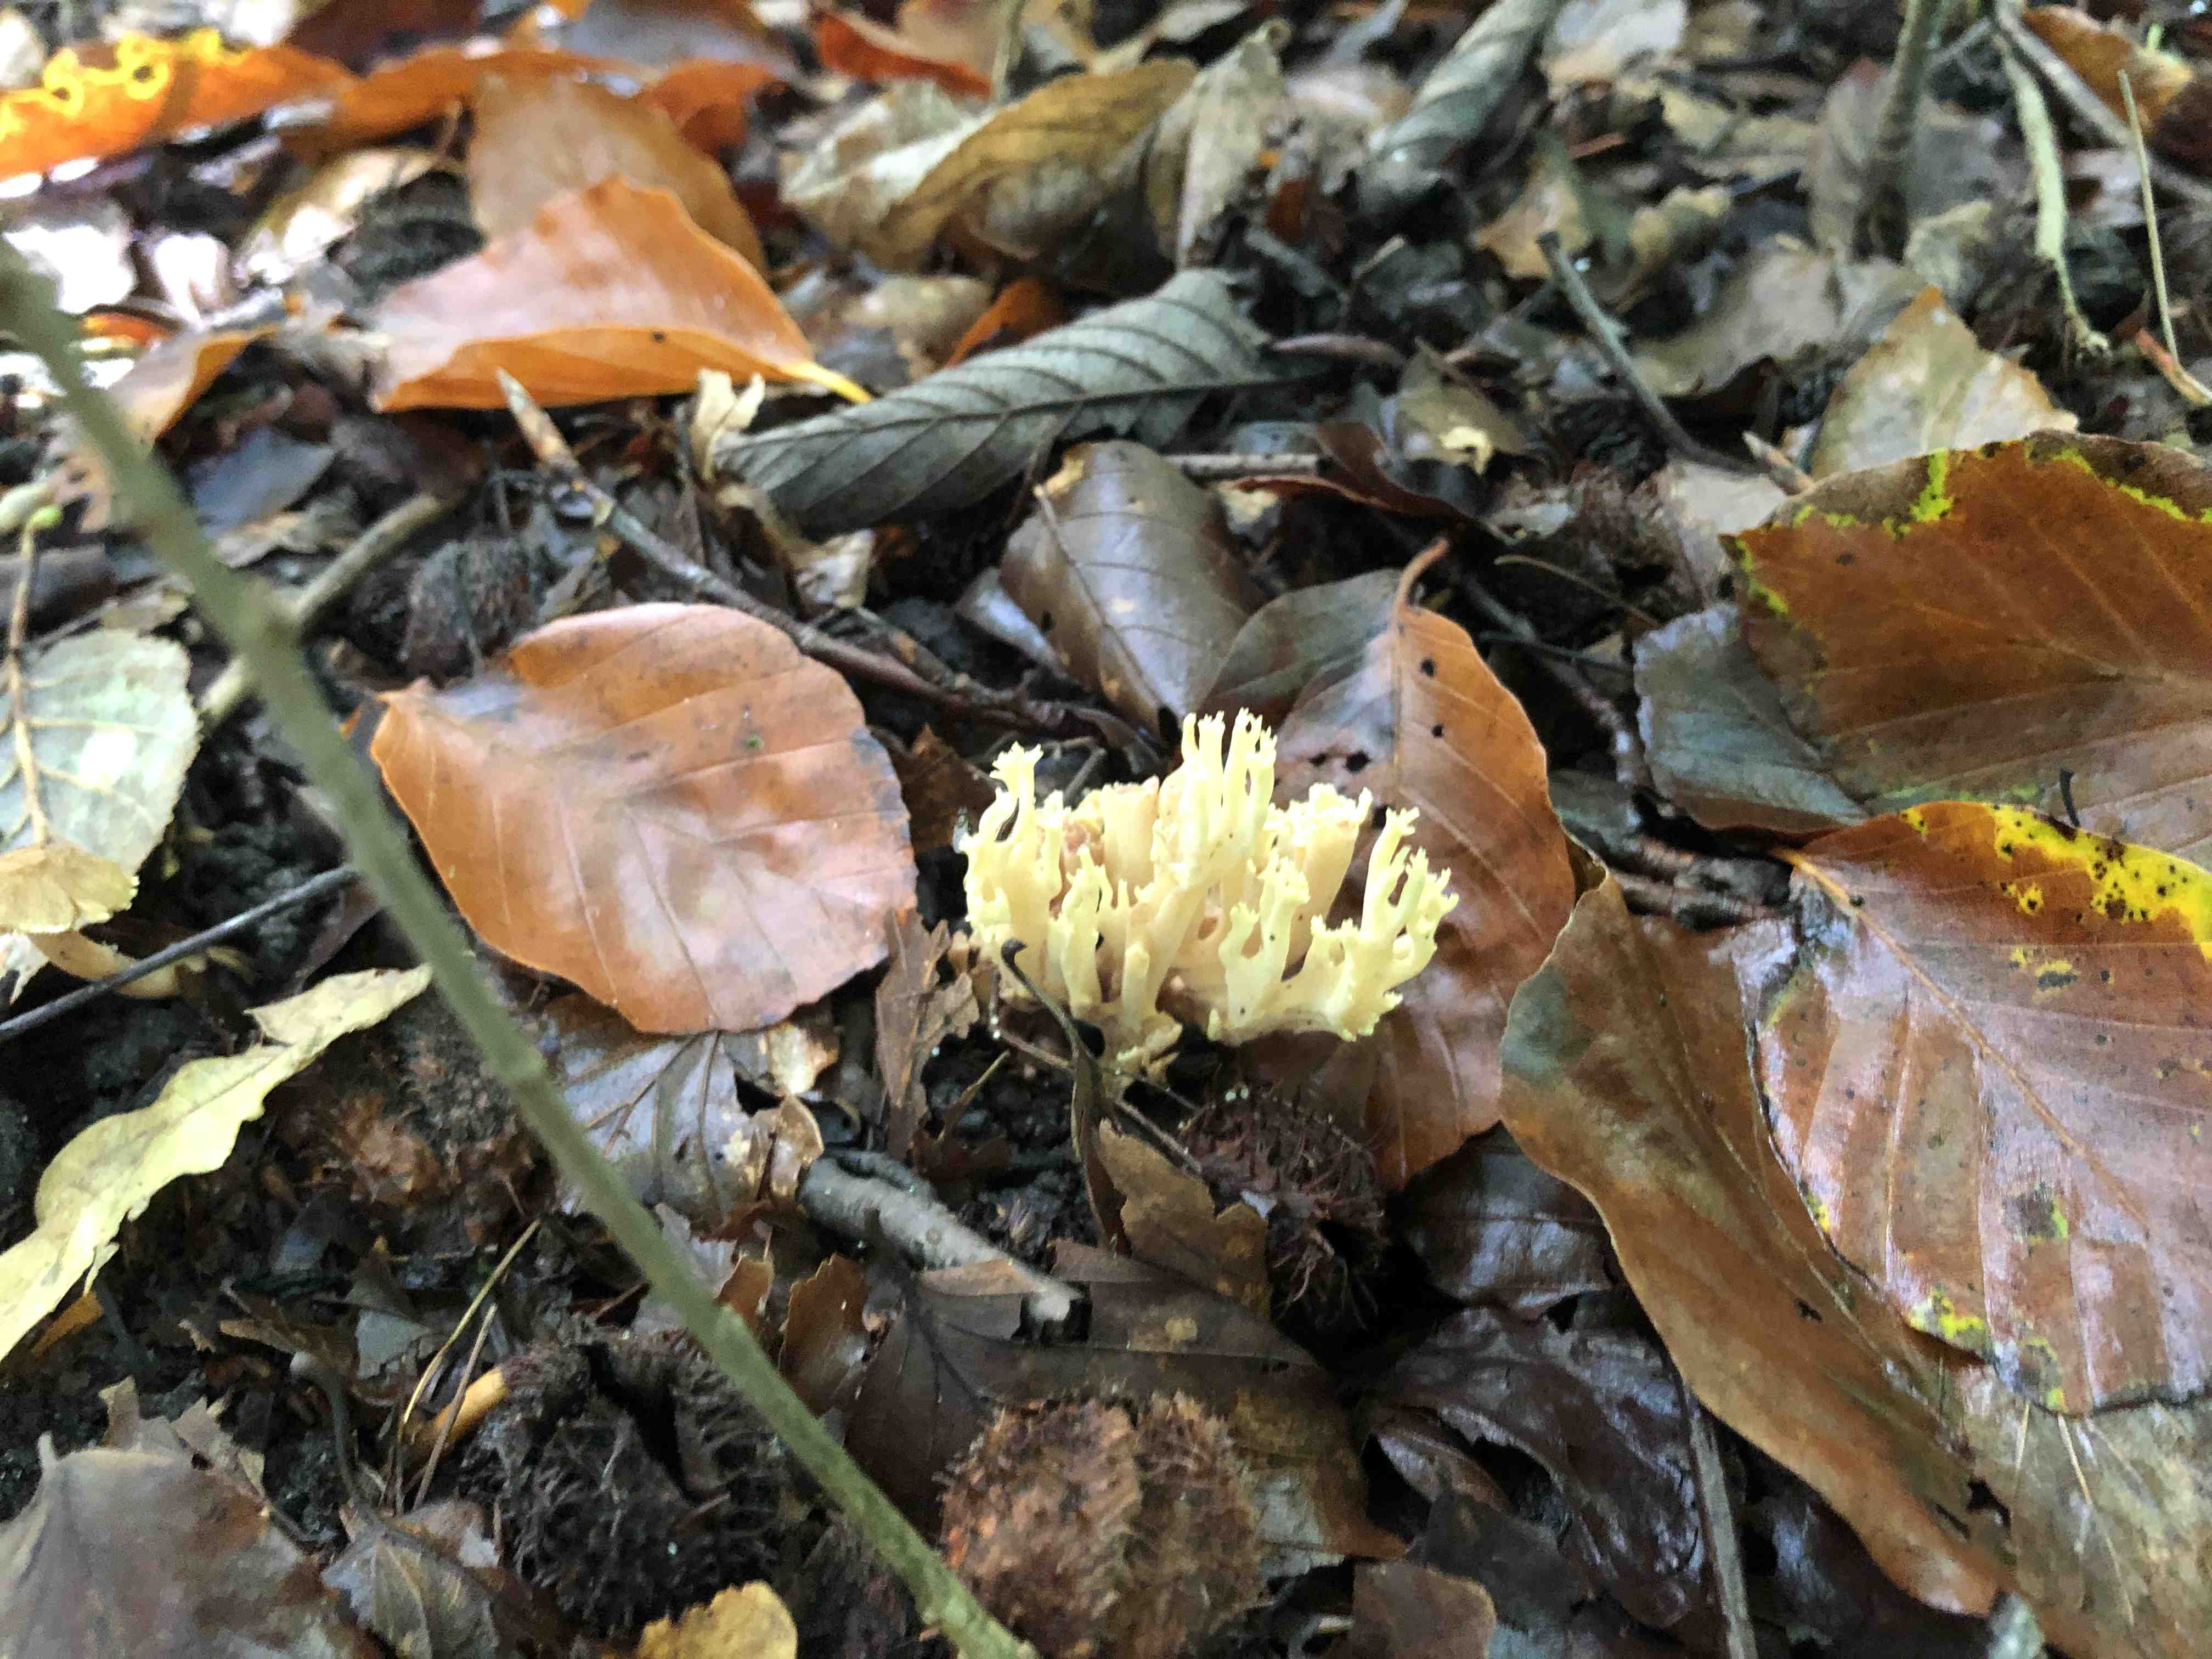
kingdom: Fungi
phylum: Basidiomycota
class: Agaricomycetes
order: Gomphales
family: Gomphaceae
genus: Ramaria
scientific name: Ramaria stricta
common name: rank koralsvamp
